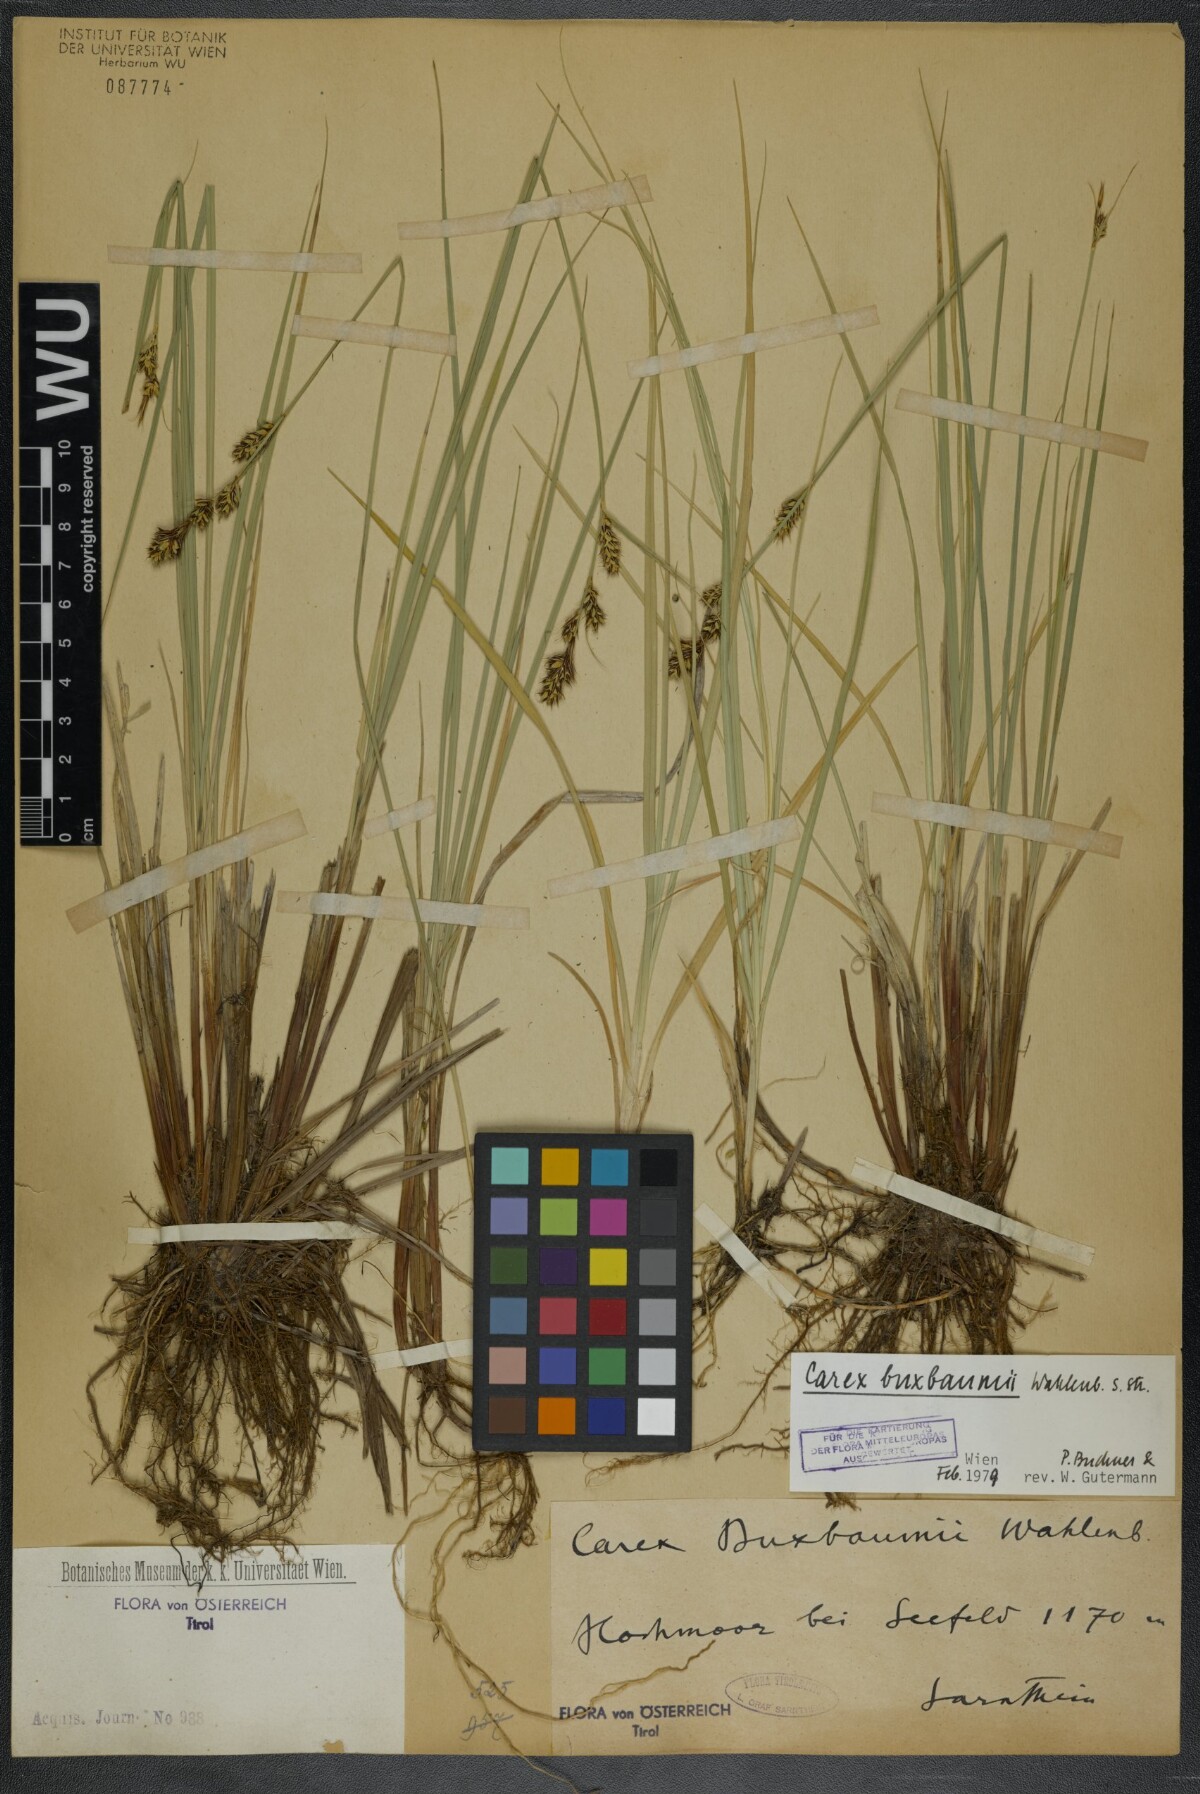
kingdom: Plantae
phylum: Tracheophyta
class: Liliopsida
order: Poales
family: Cyperaceae
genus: Carex
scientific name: Carex buxbaumii
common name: Club sedge
